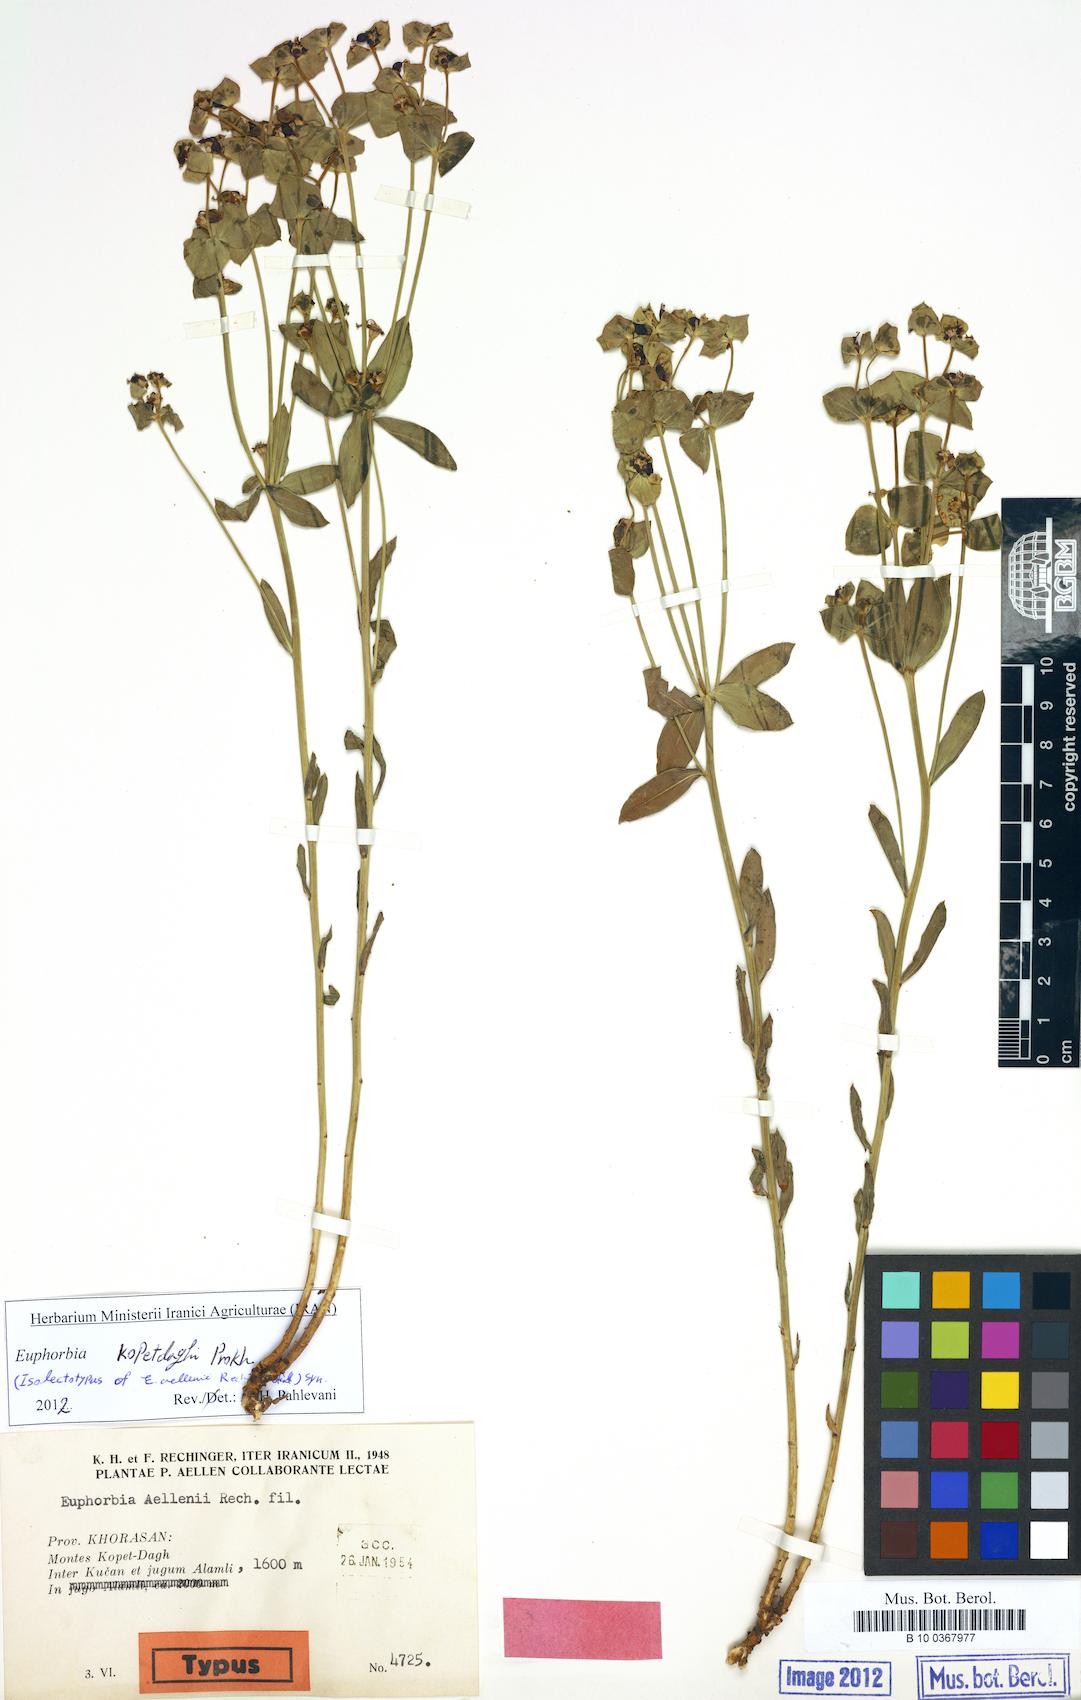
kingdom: Plantae
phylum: Tracheophyta
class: Magnoliopsida
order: Malpighiales
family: Euphorbiaceae
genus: Euphorbia
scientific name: Euphorbia kopetdaghi
